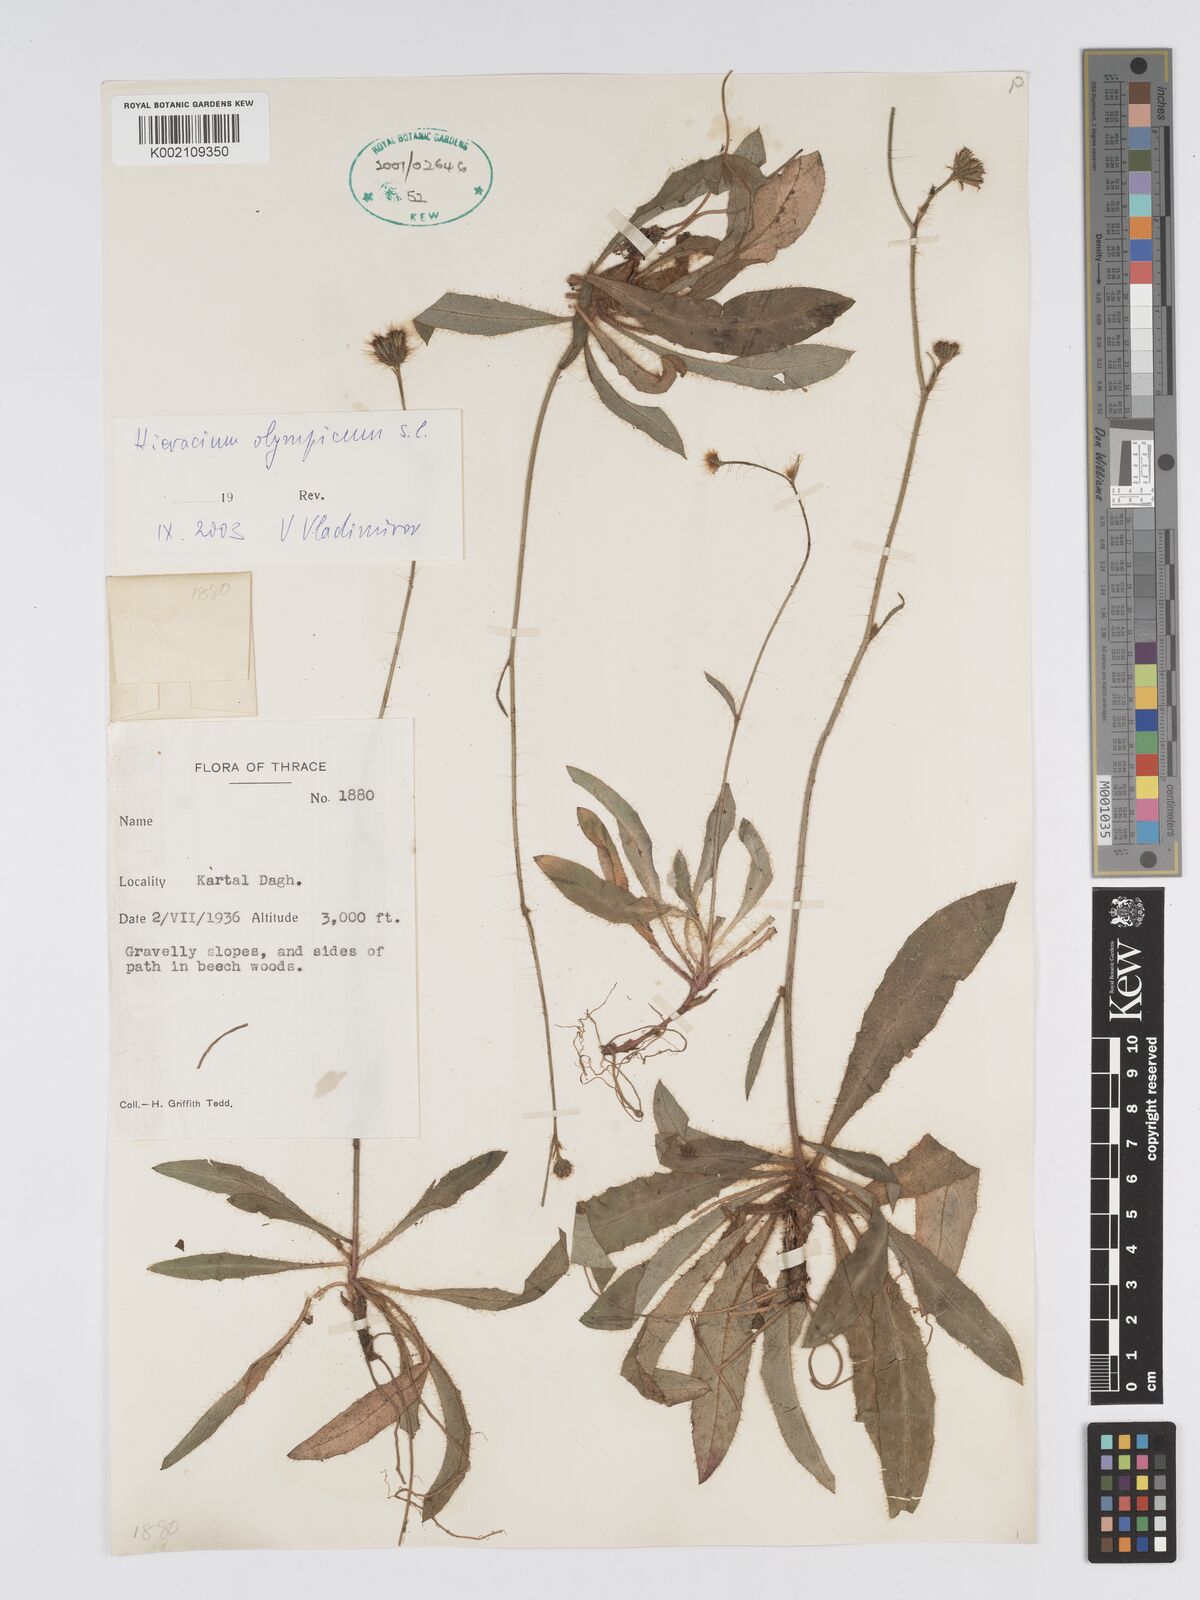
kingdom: Plantae
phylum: Tracheophyta
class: Magnoliopsida
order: Asterales
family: Asteraceae
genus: Hieracium
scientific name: Hieracium
